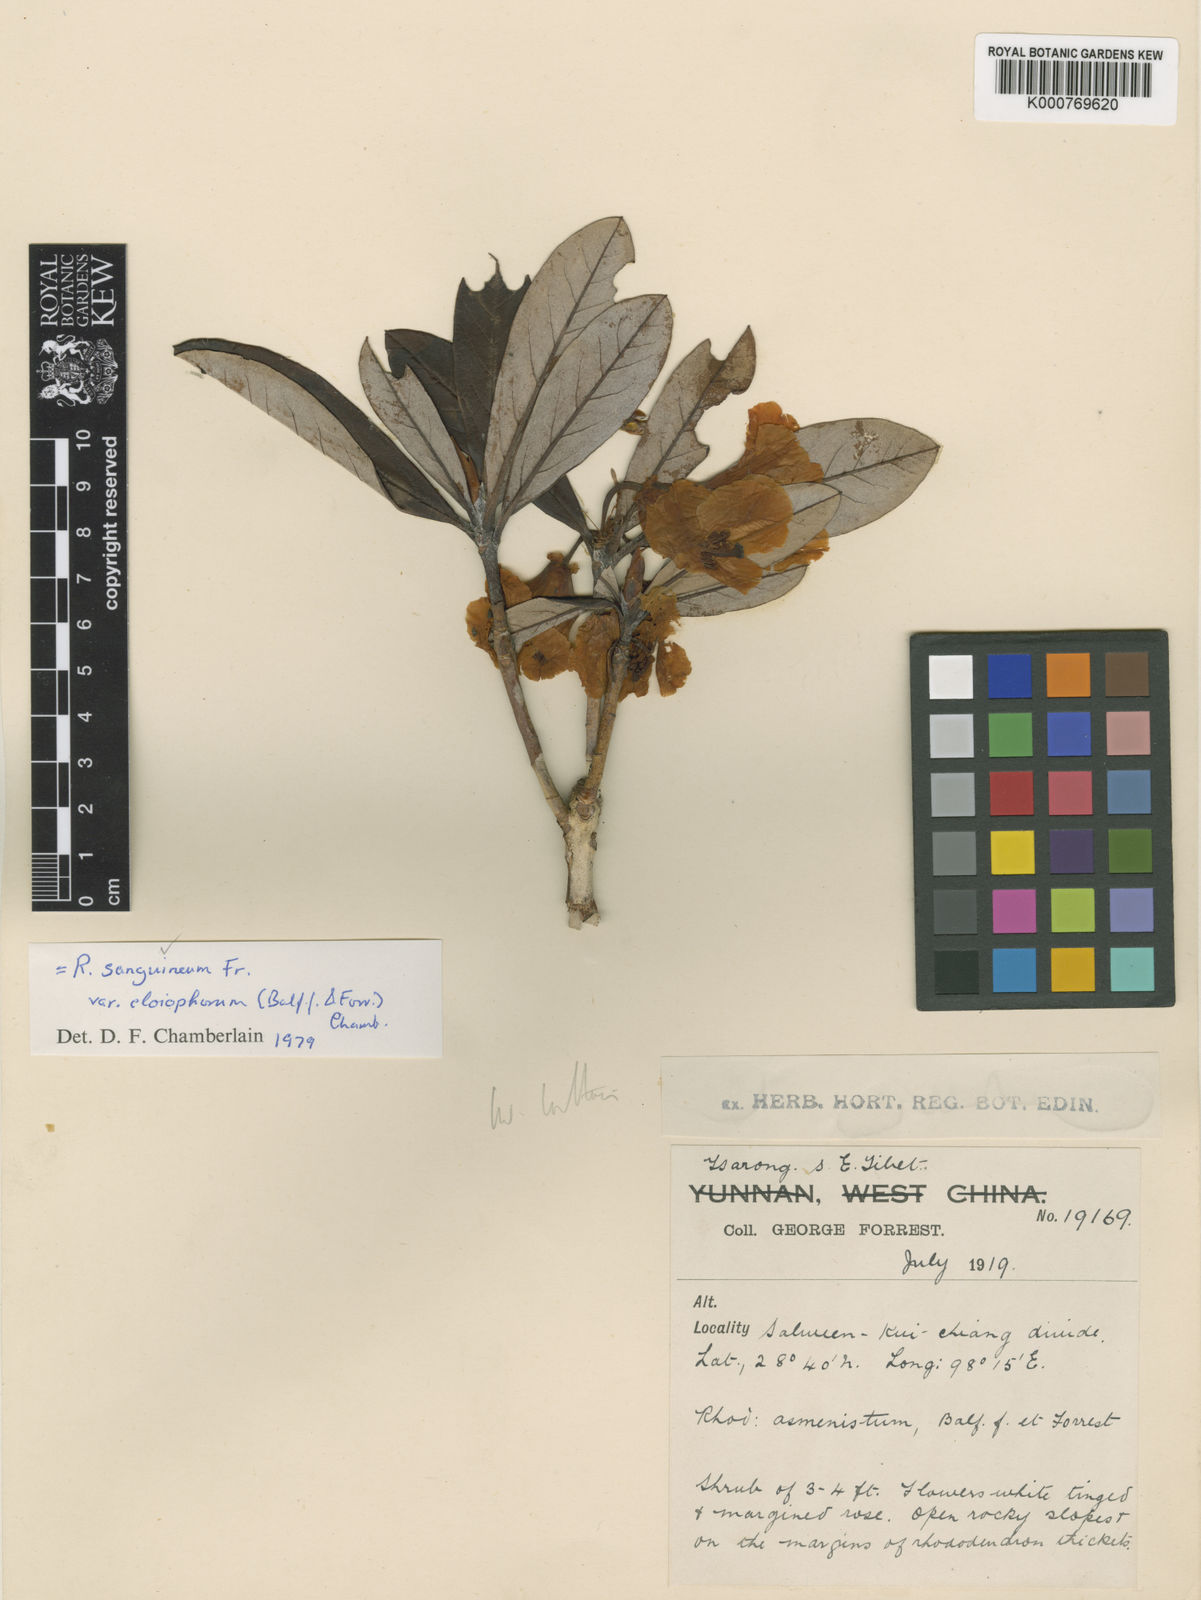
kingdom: Plantae
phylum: Tracheophyta
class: Magnoliopsida
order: Ericales
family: Ericaceae
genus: Rhododendron
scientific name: Rhododendron sanguineum
